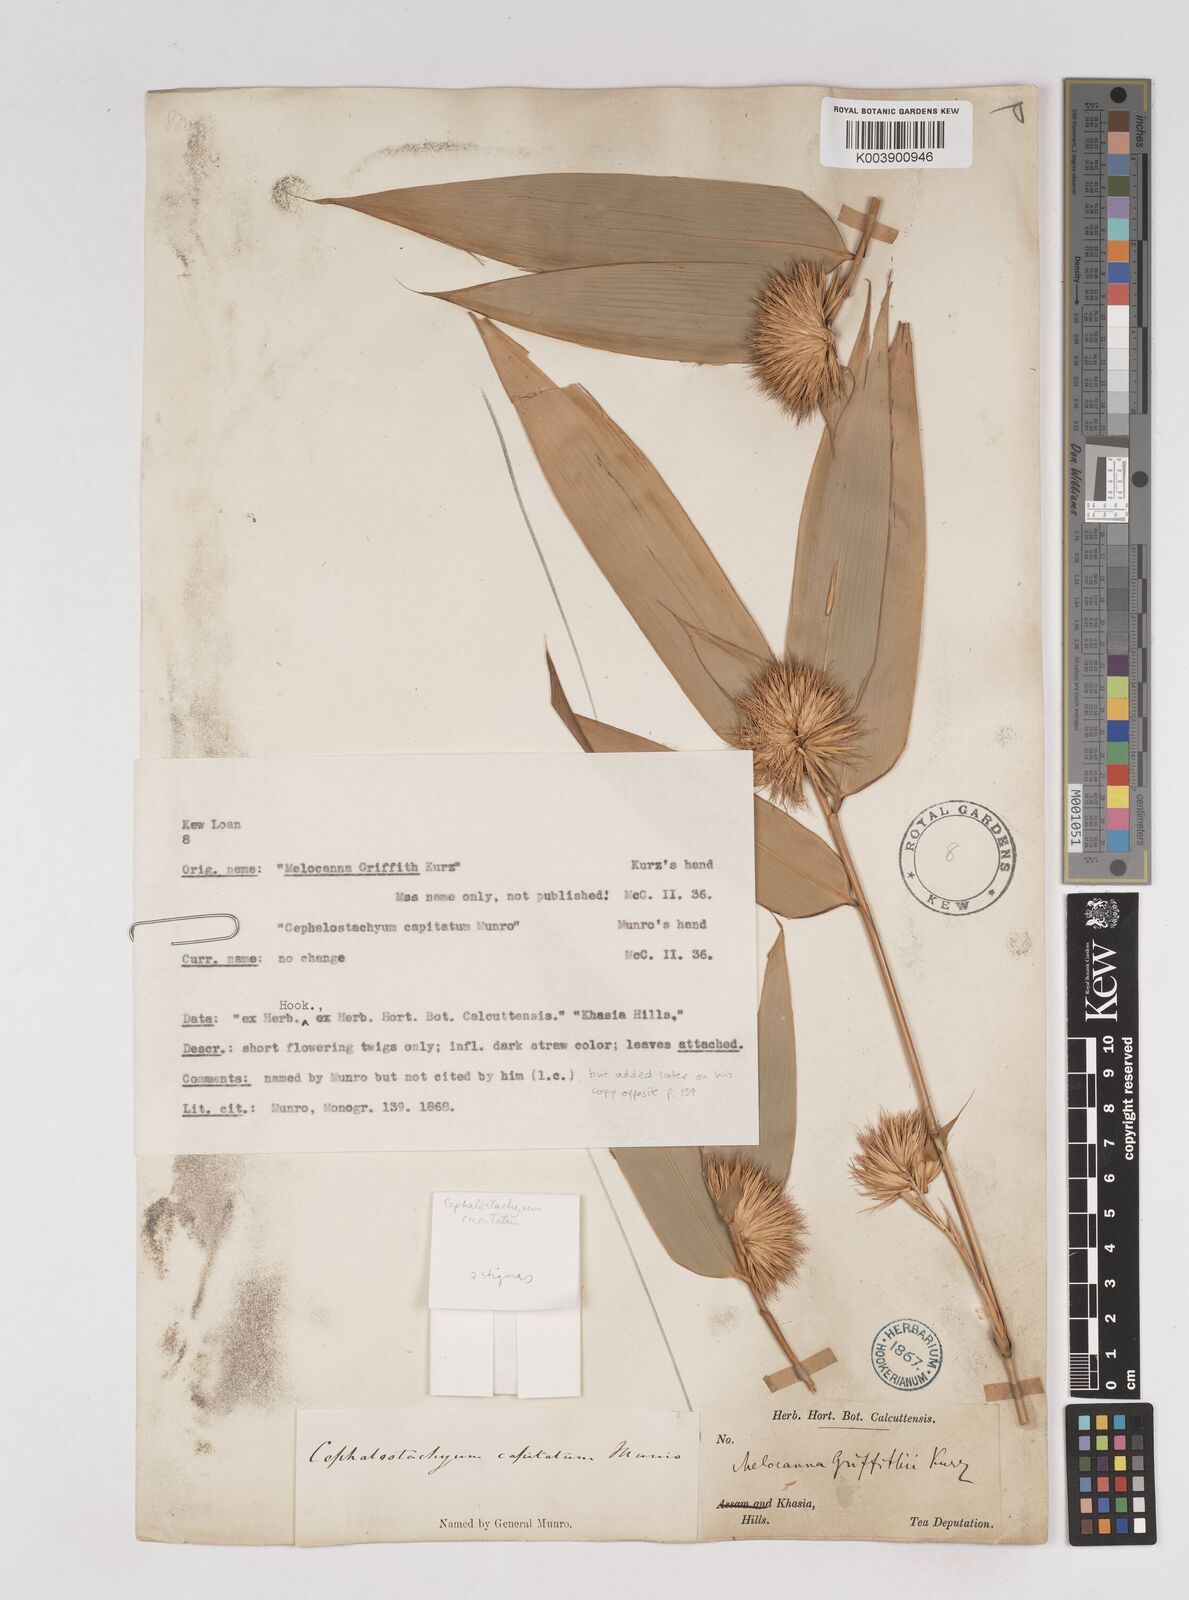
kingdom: Plantae
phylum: Tracheophyta
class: Liliopsida
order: Poales
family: Poaceae
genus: Cephalostachyum
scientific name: Cephalostachyum capitatum
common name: Hollow bamboo
